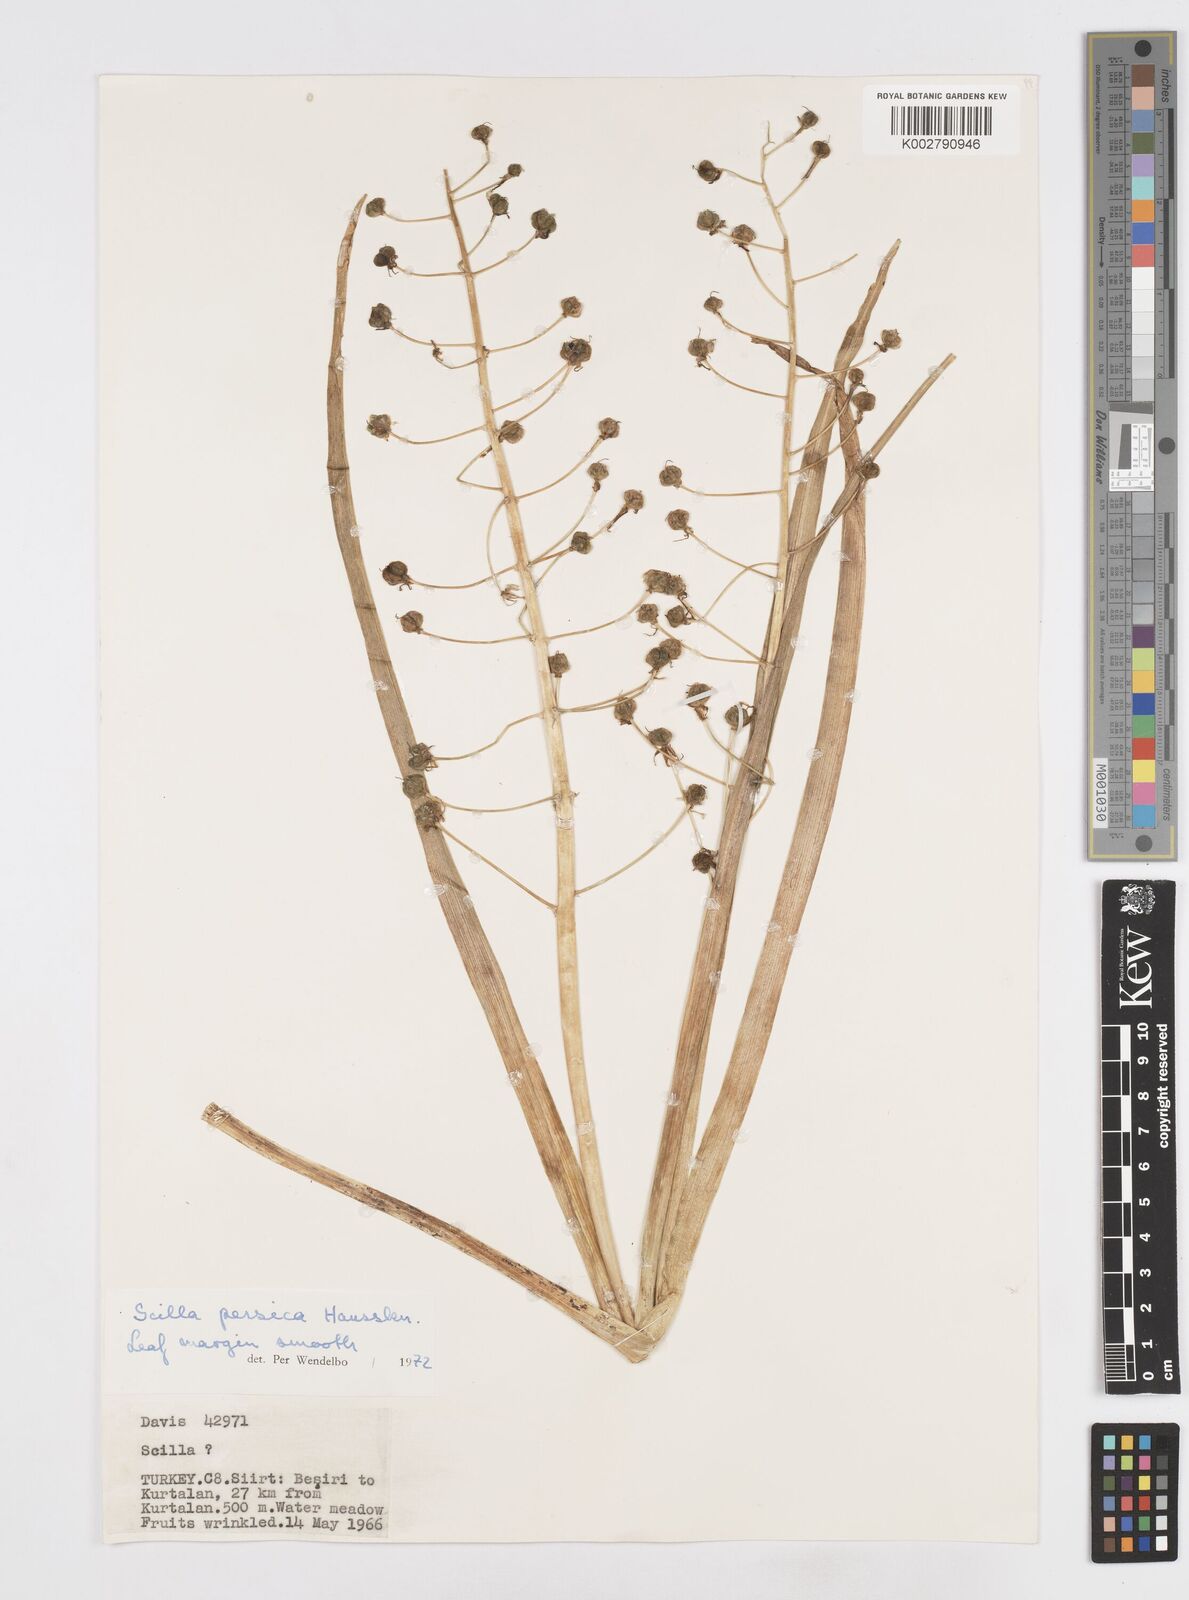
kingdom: Plantae
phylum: Tracheophyta
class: Liliopsida
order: Asparagales
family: Asparagaceae
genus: Zagrosia
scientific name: Zagrosia persica
